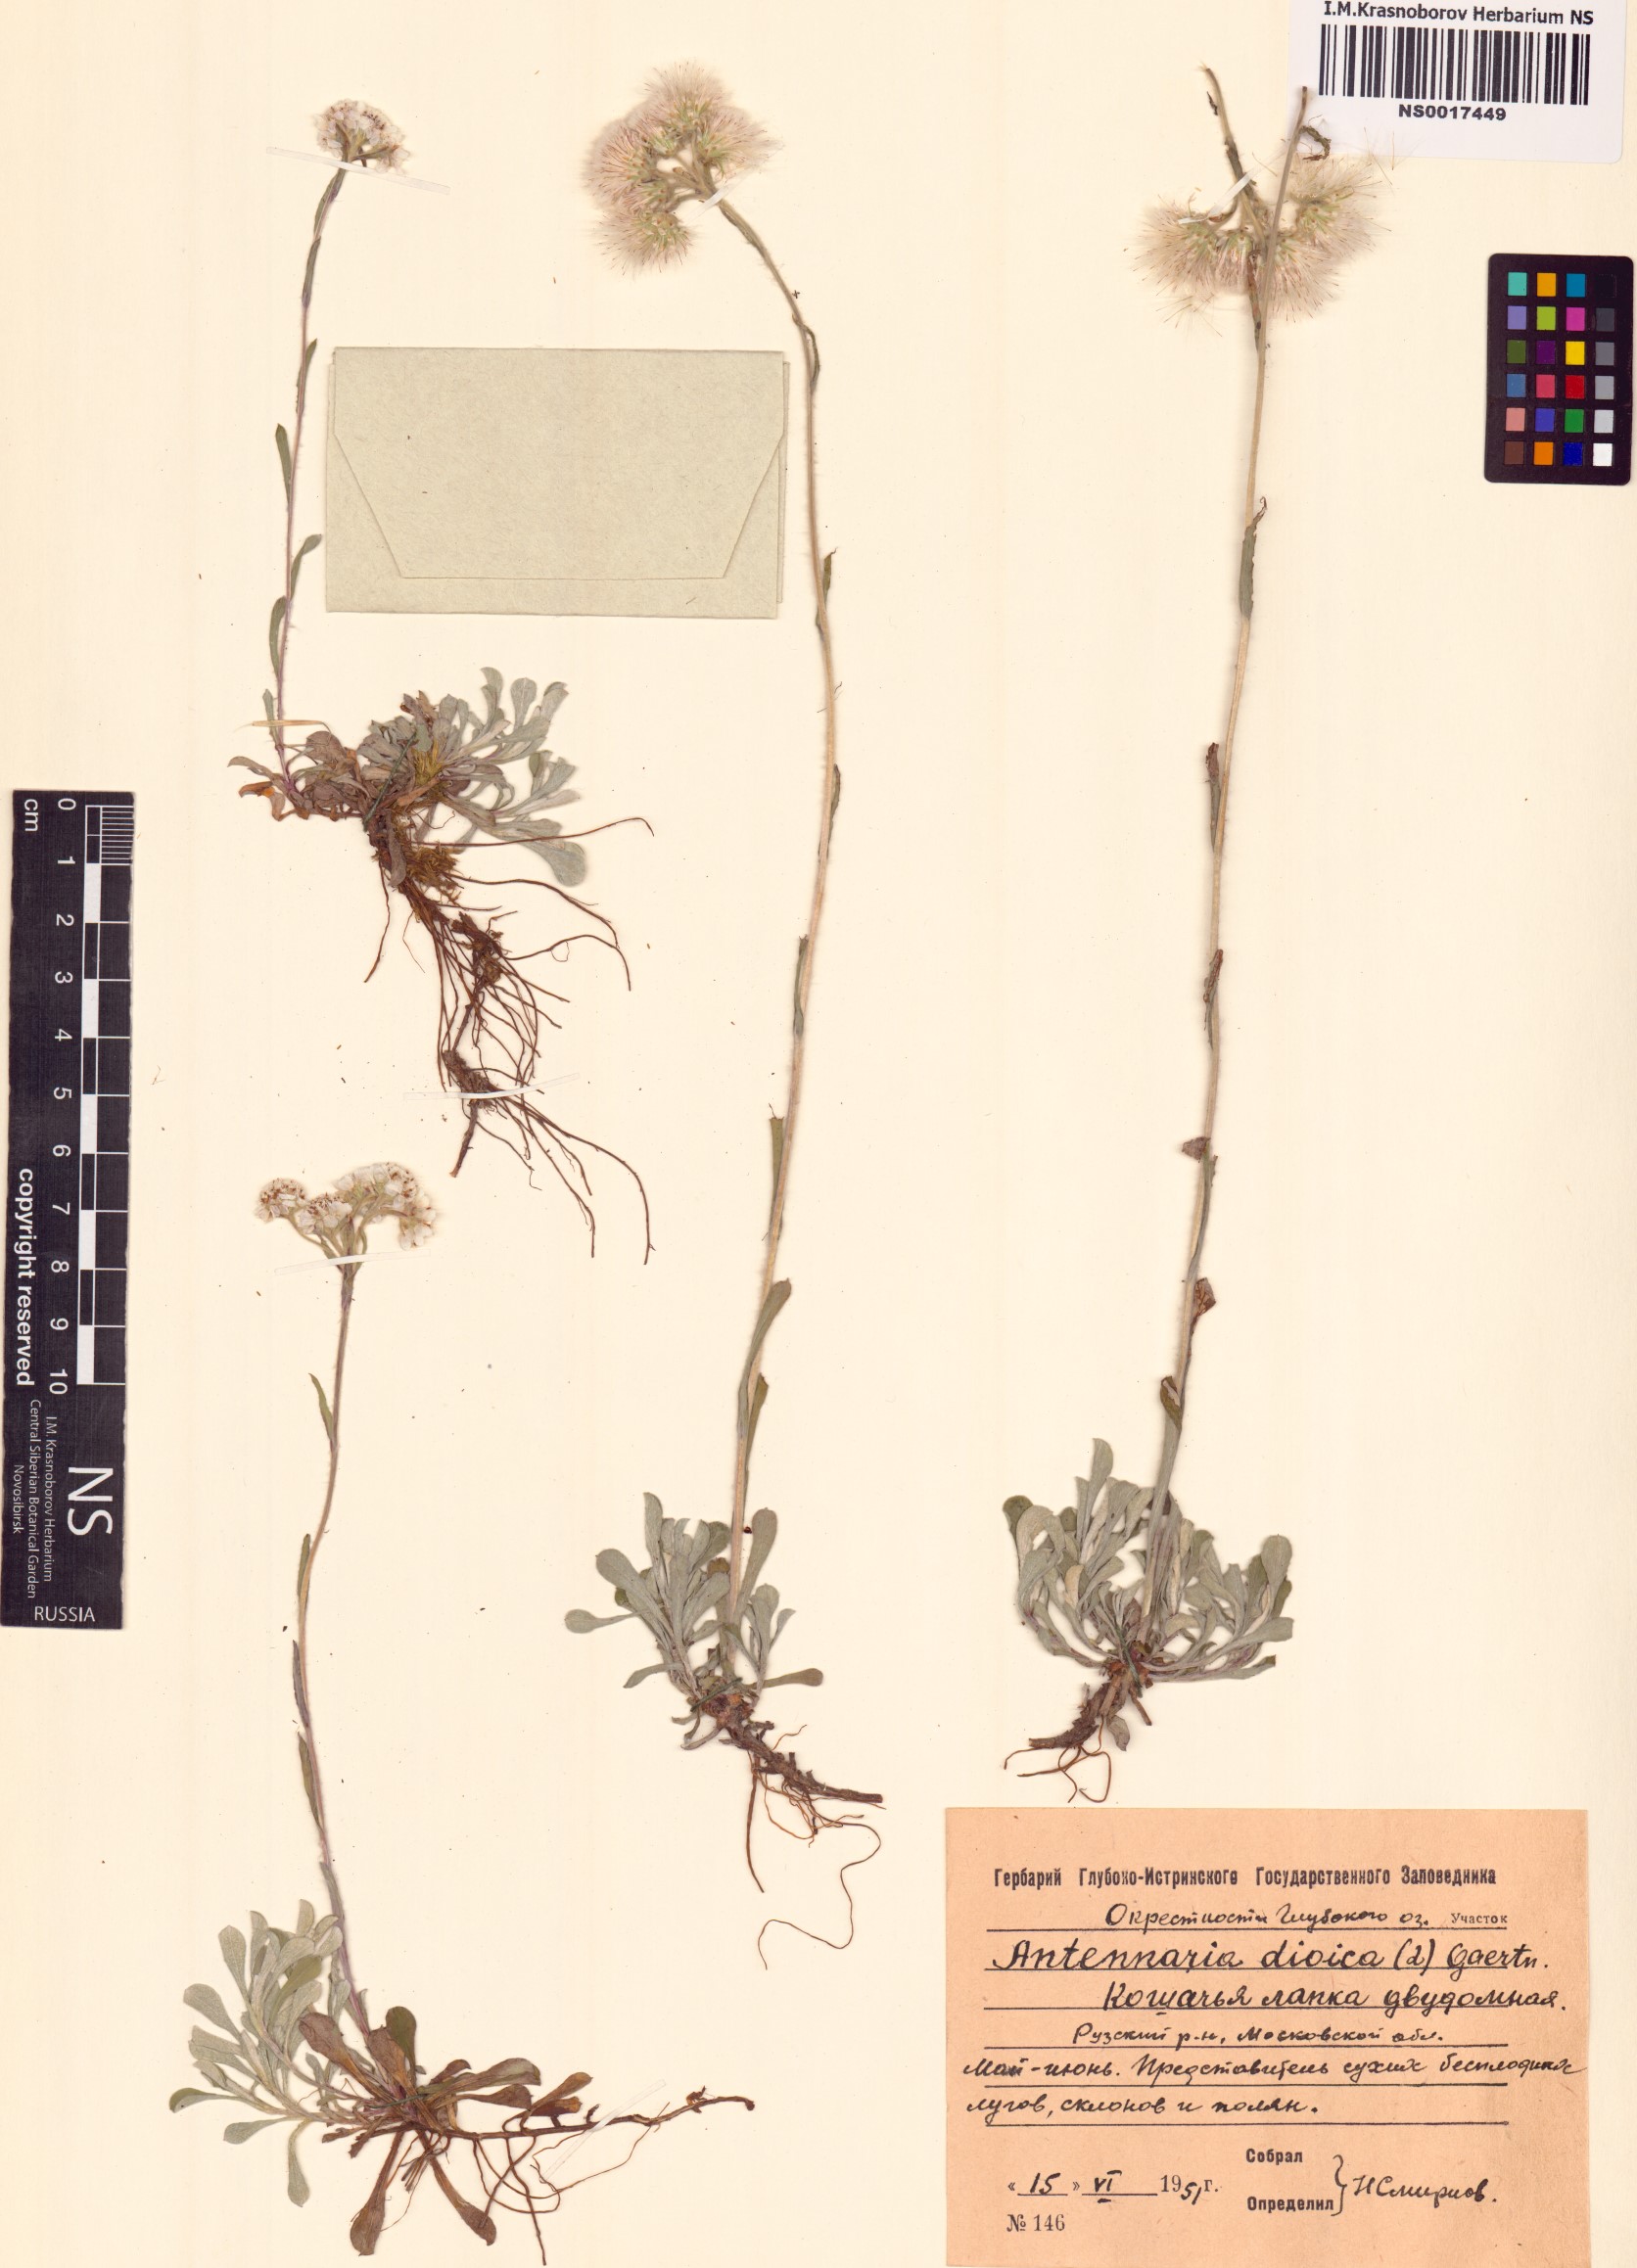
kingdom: Plantae
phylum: Tracheophyta
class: Magnoliopsida
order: Asterales
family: Asteraceae
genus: Antennaria
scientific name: Antennaria dioica
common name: Mountain everlasting
